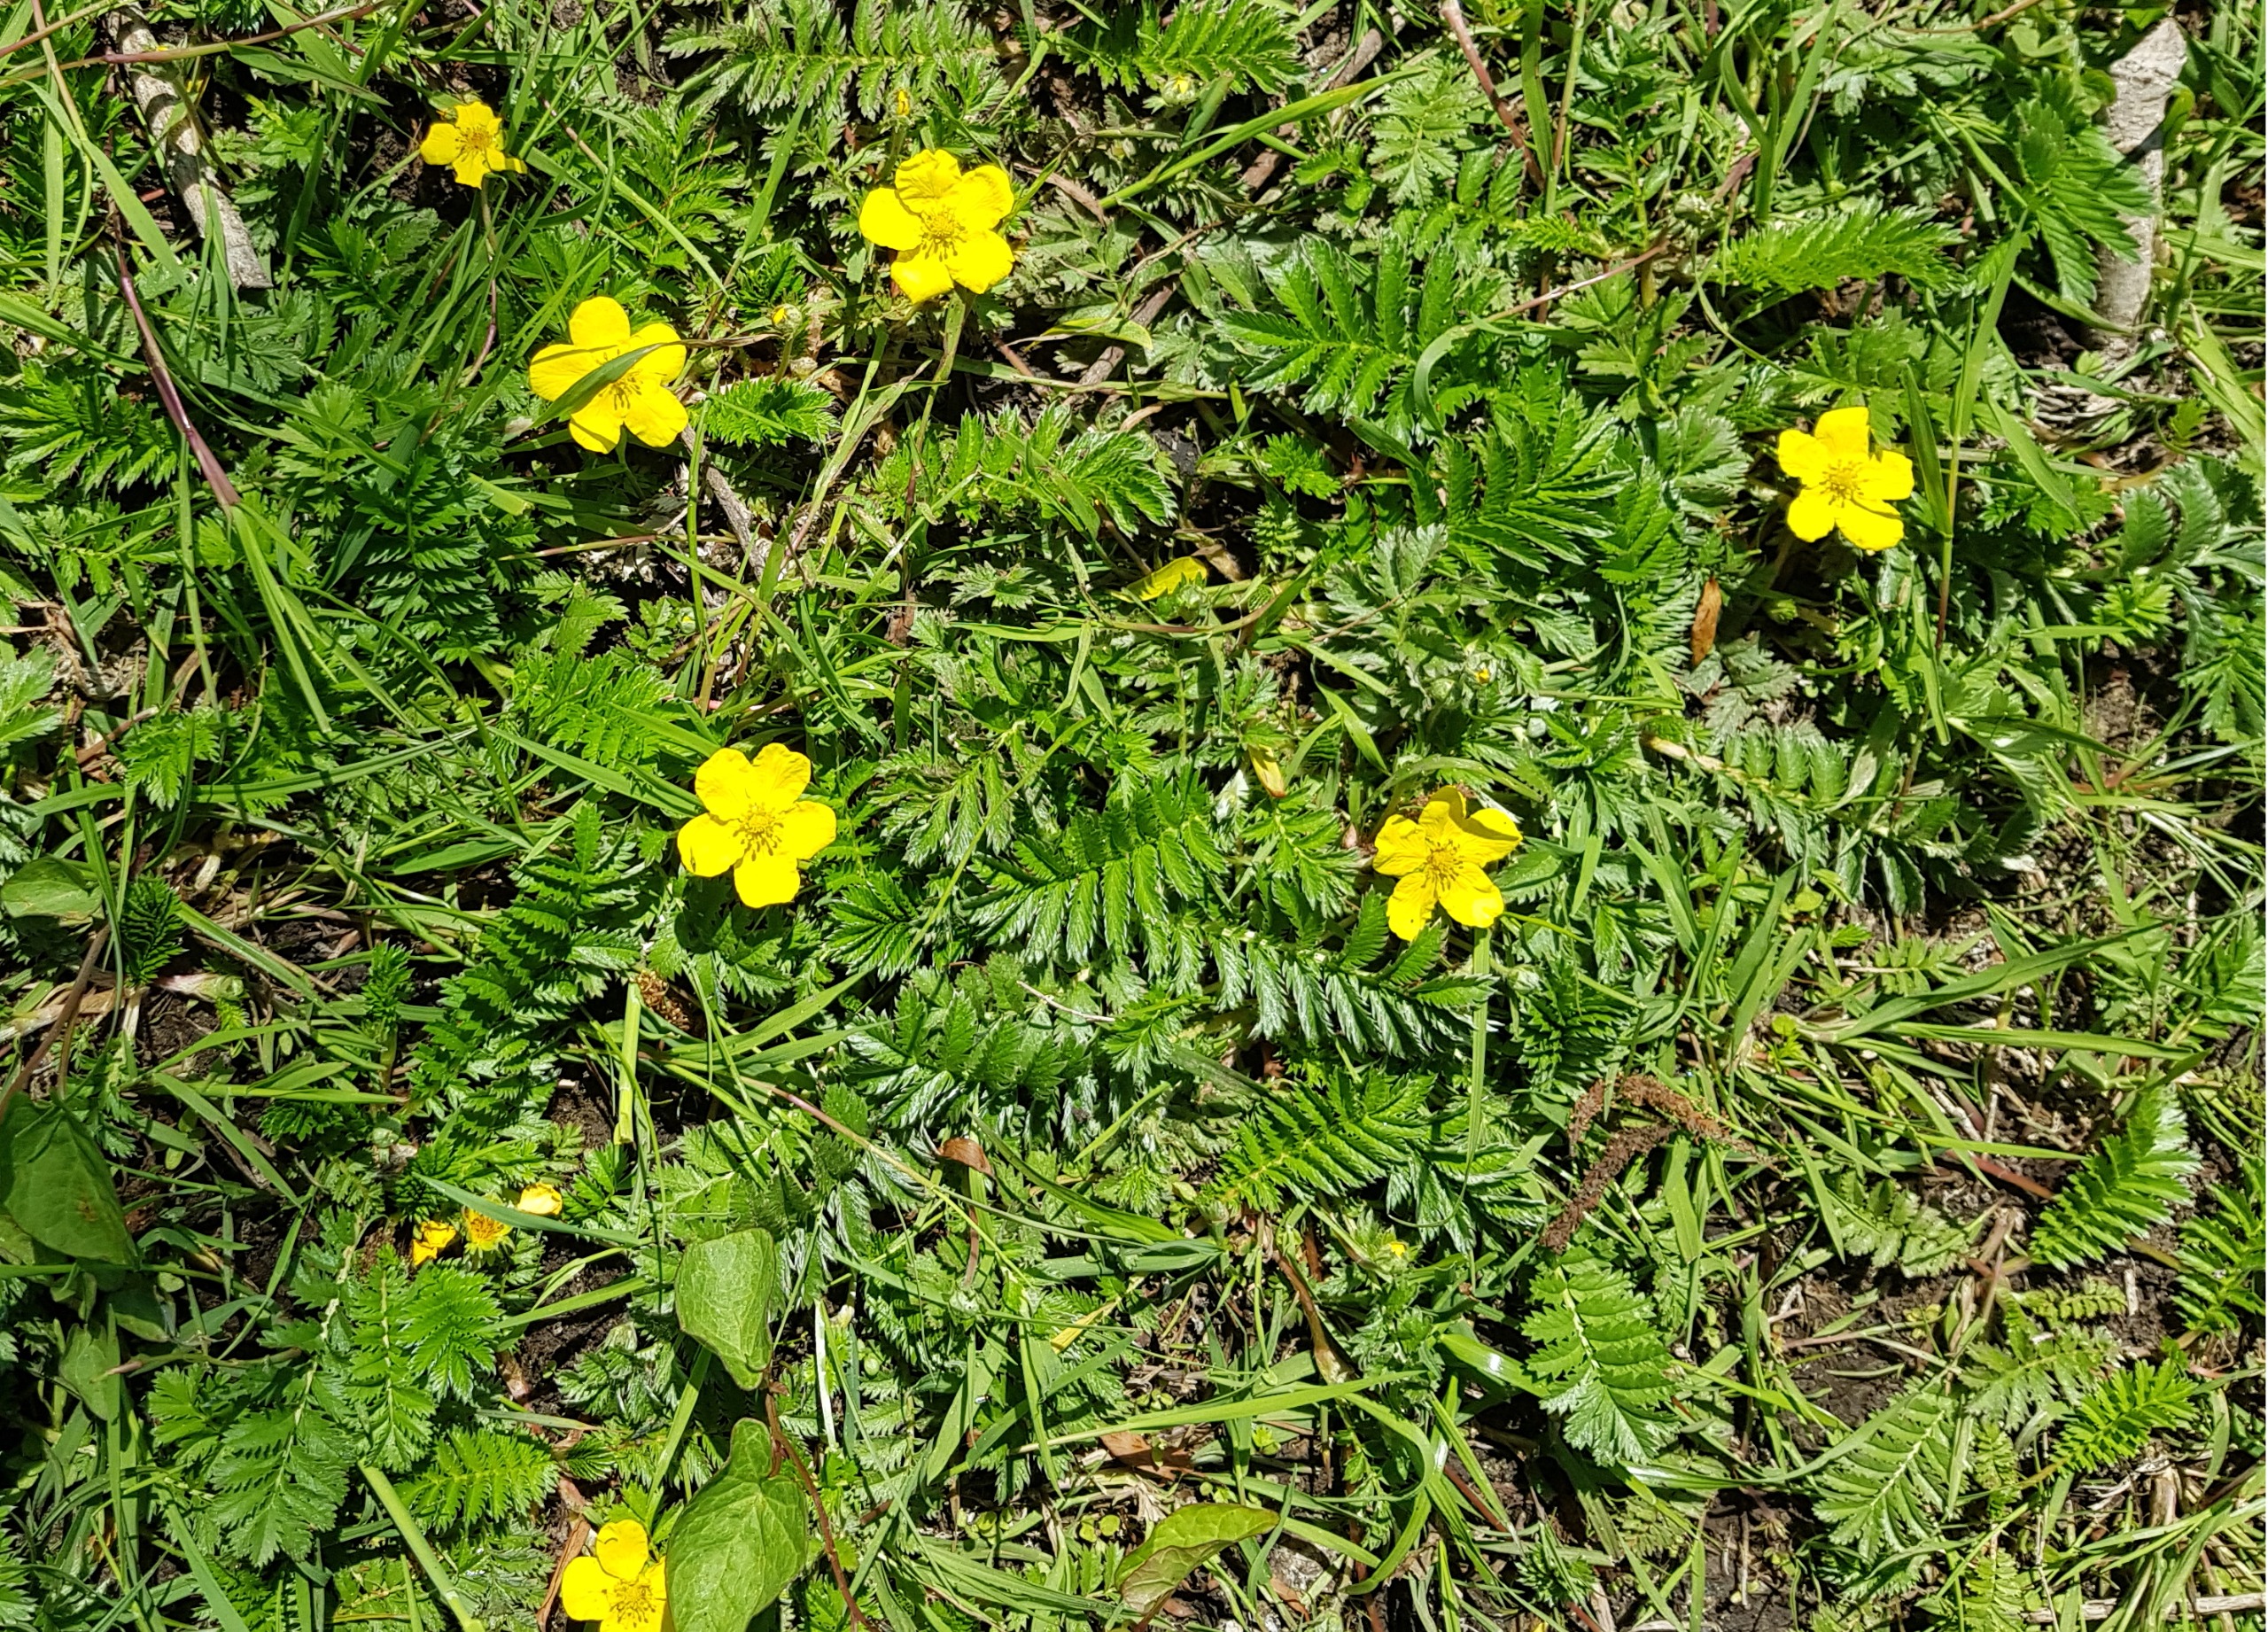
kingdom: Plantae
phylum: Tracheophyta
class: Magnoliopsida
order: Rosales
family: Rosaceae
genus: Argentina
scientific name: Argentina anserina
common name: Gåsepotentil
